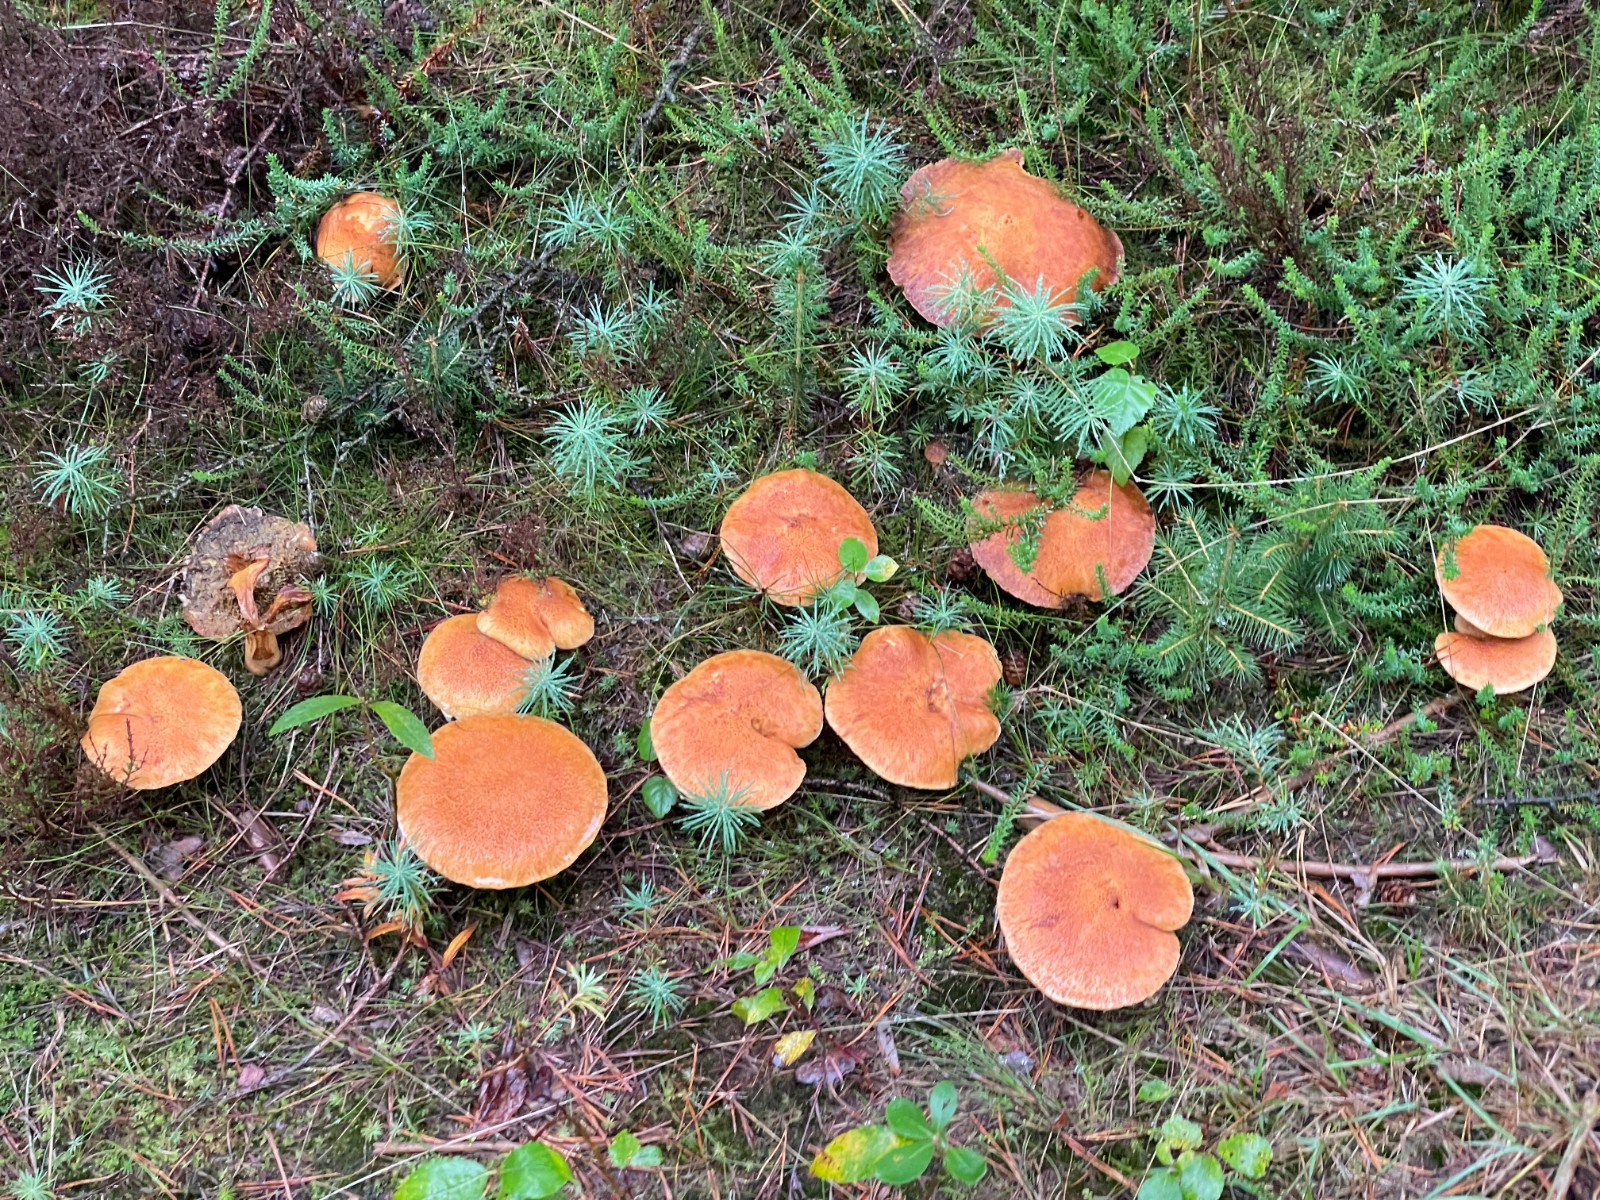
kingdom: Fungi
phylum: Basidiomycota
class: Agaricomycetes
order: Boletales
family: Suillaceae
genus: Suillus
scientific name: Suillus cavipes
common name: hulstokket slimrørhat
